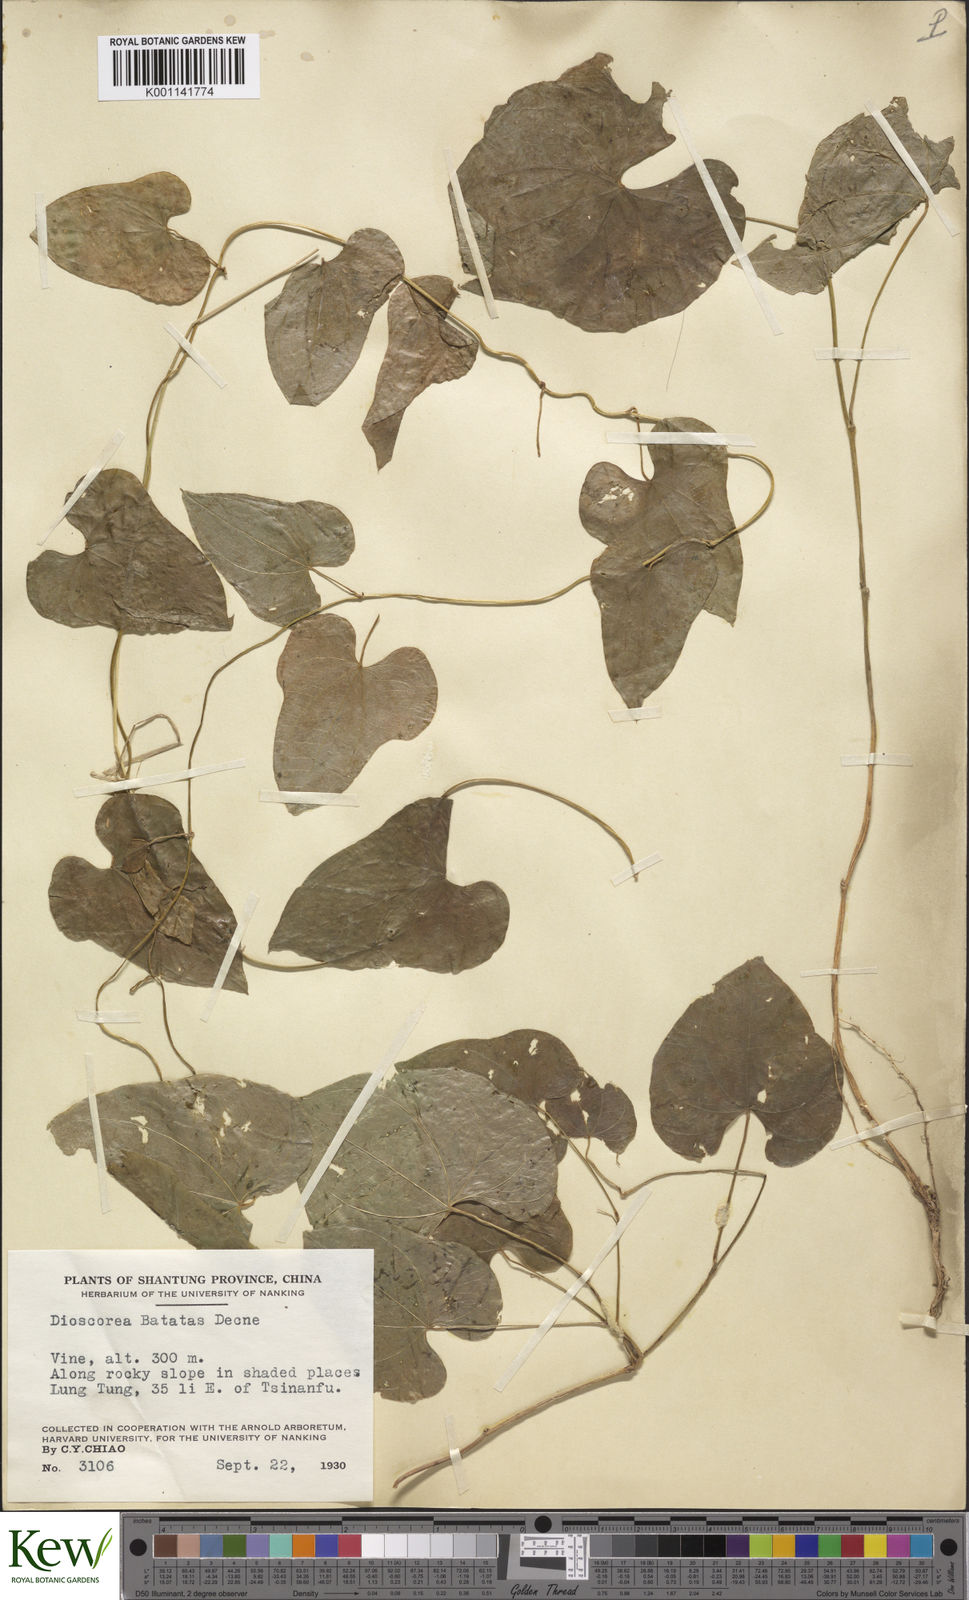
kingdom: Plantae
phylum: Tracheophyta
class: Liliopsida
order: Dioscoreales
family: Dioscoreaceae
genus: Dioscorea
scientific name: Dioscorea oppositifolia
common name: Chinese yam
